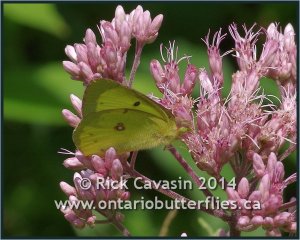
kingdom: Animalia
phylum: Arthropoda
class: Insecta
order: Lepidoptera
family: Pieridae
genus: Colias
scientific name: Colias philodice
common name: Clouded Sulphur
